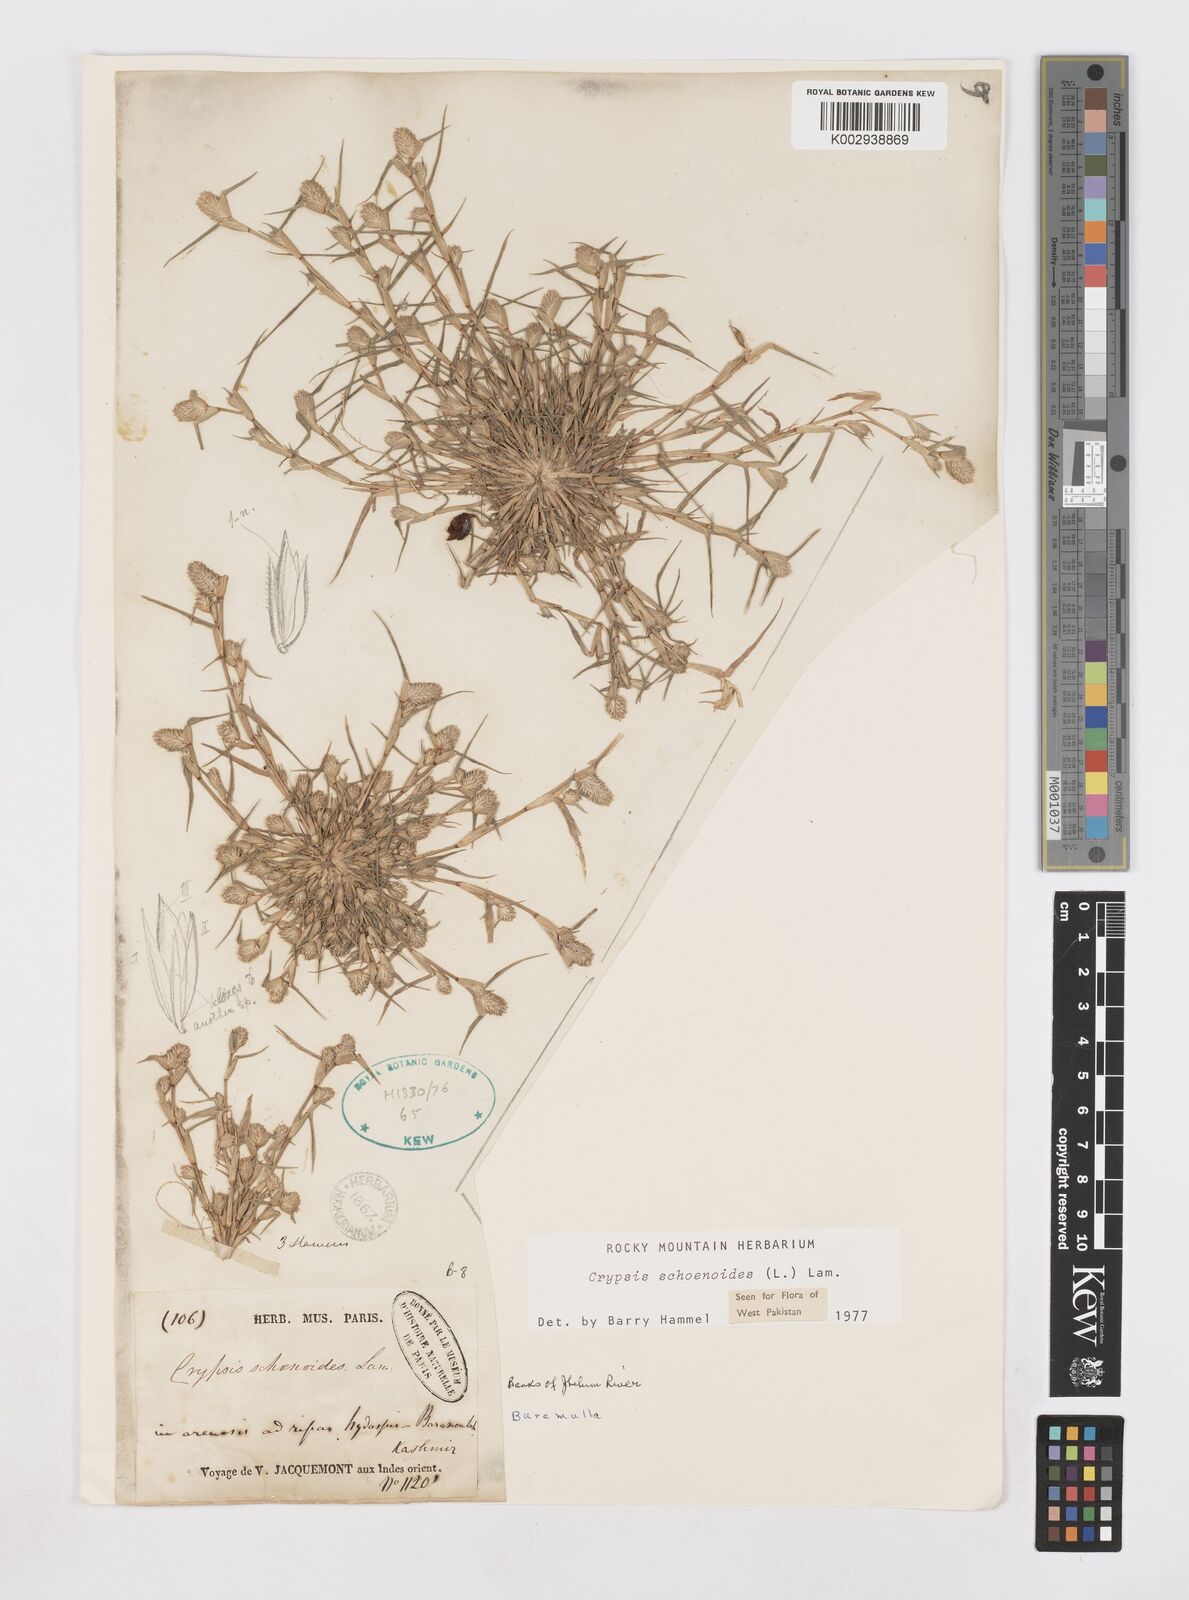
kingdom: Plantae
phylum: Tracheophyta
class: Liliopsida
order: Poales
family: Poaceae
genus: Sporobolus
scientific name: Sporobolus schoenoides
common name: Rush-like timothy
